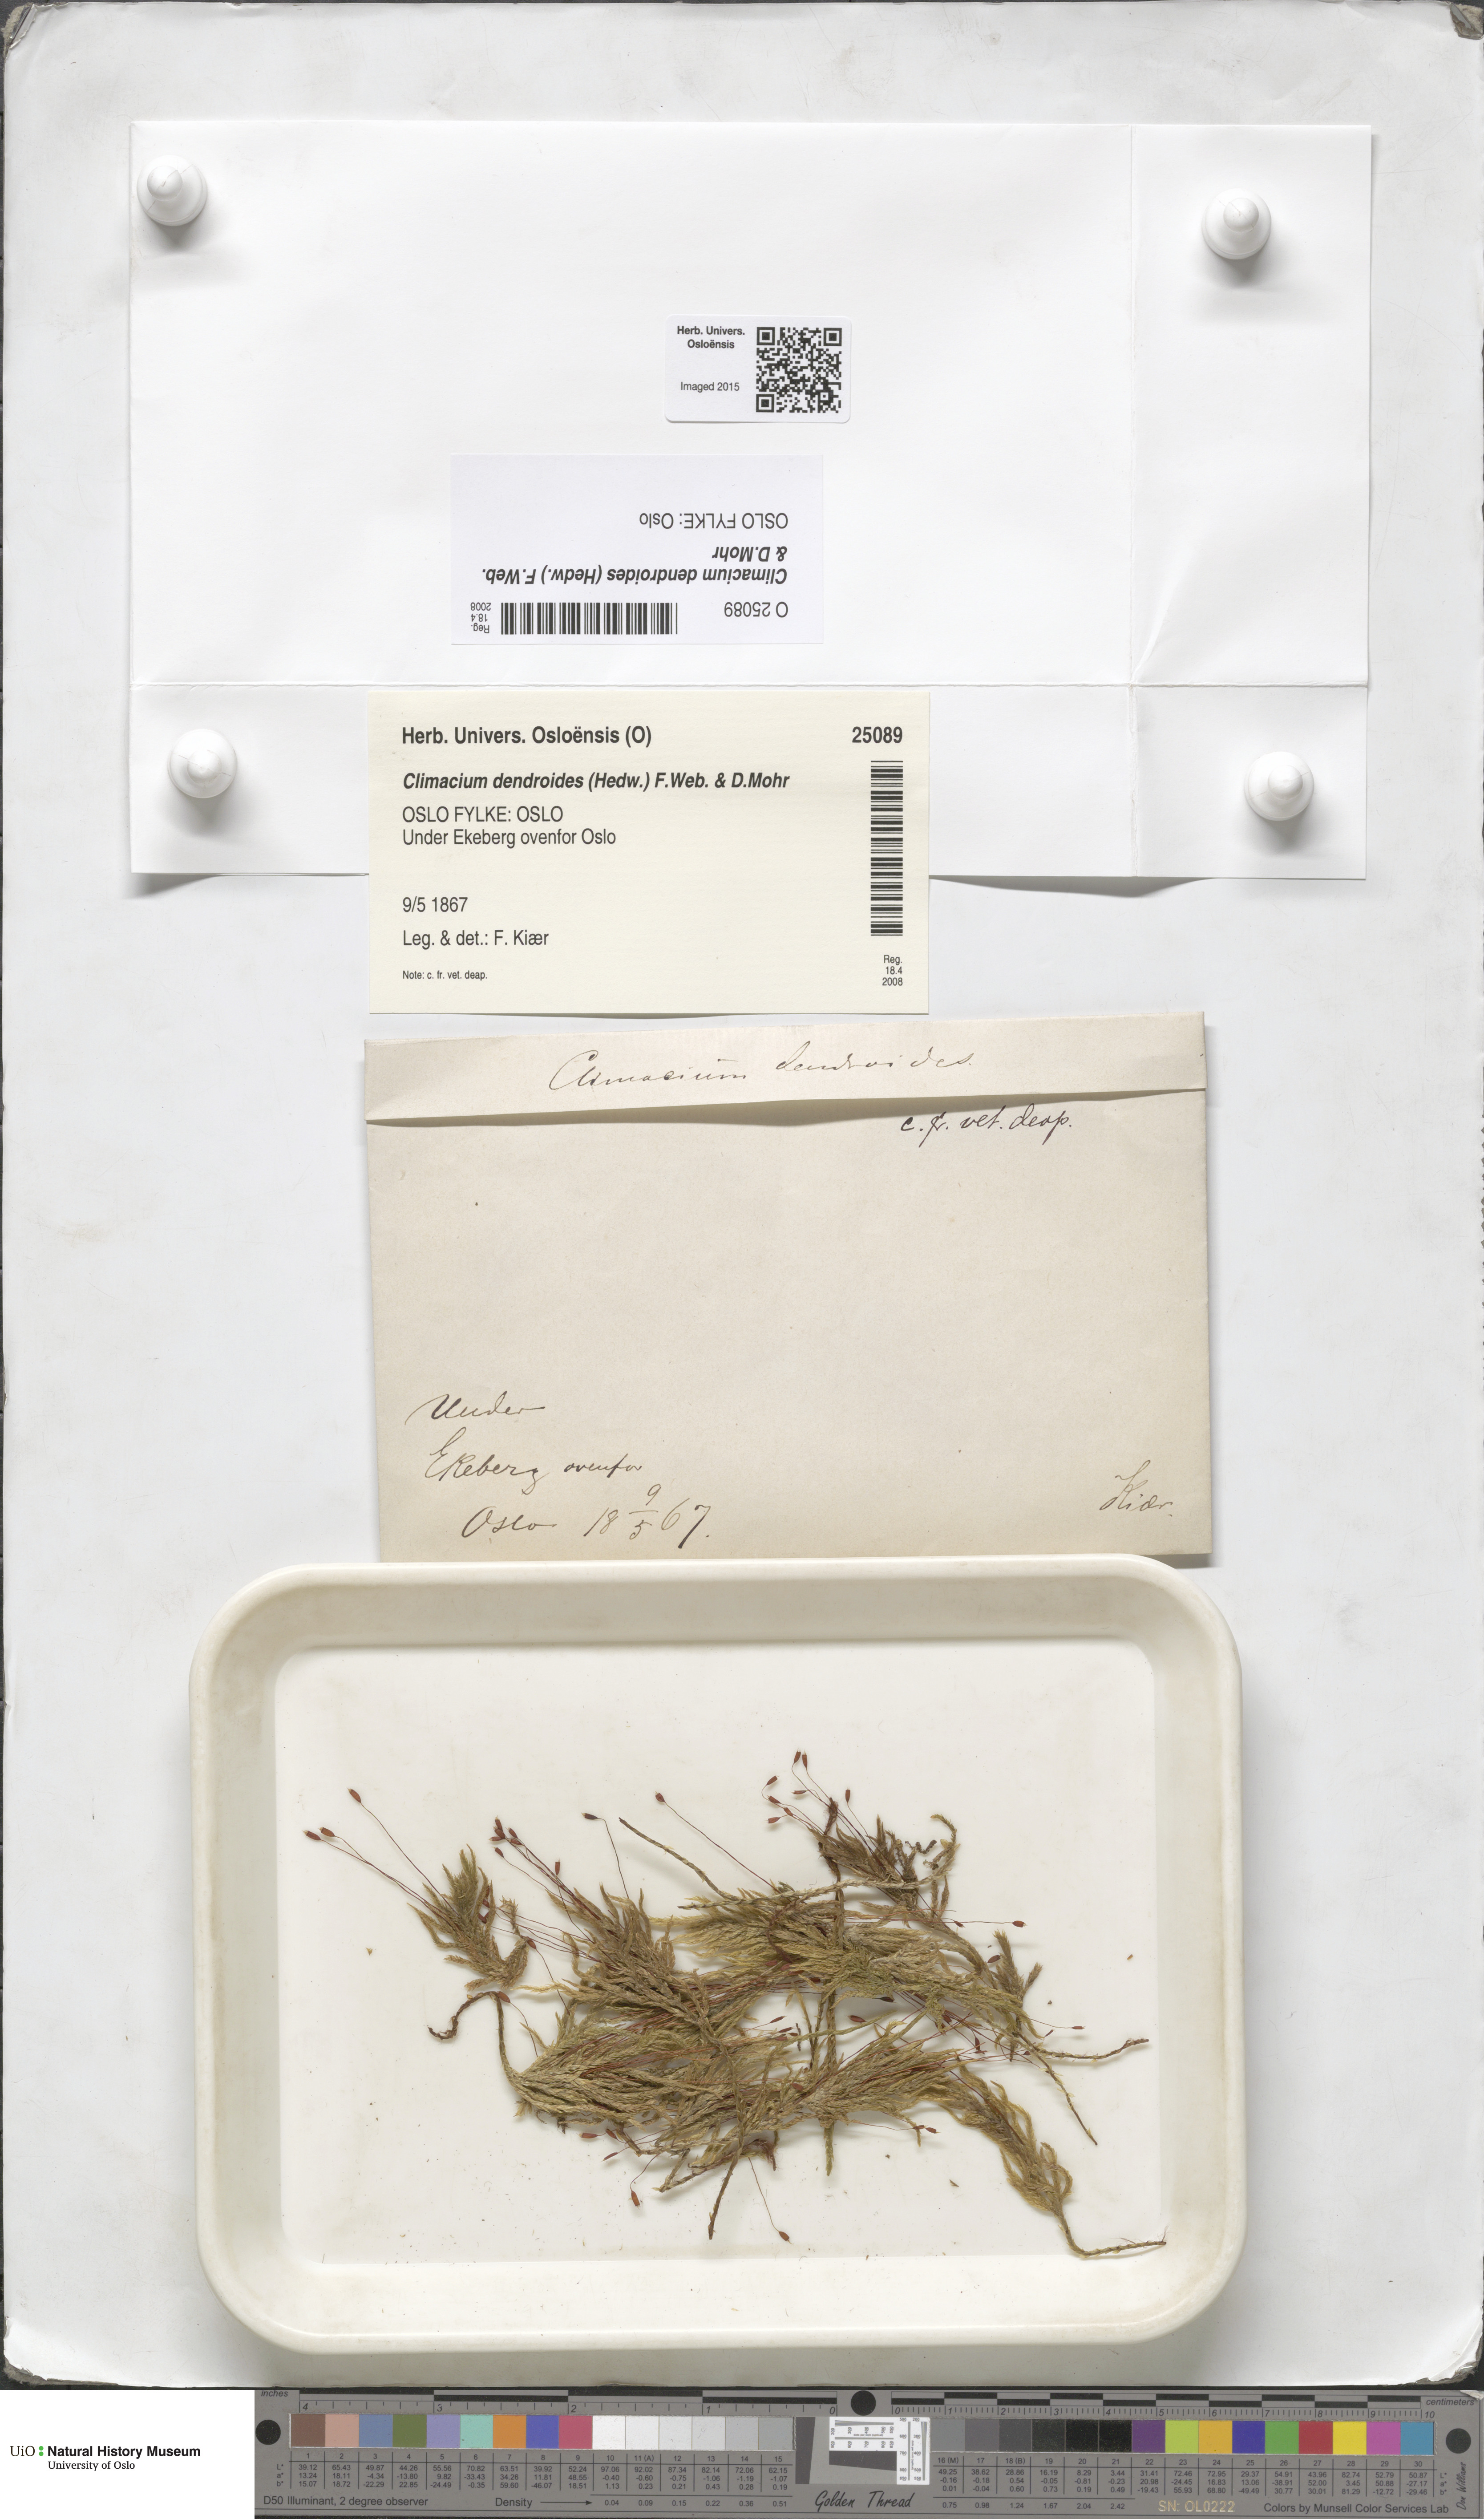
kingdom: Plantae
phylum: Bryophyta
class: Bryopsida
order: Hypnales
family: Climaciaceae
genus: Climacium
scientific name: Climacium dendroides
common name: Northern tree moss
